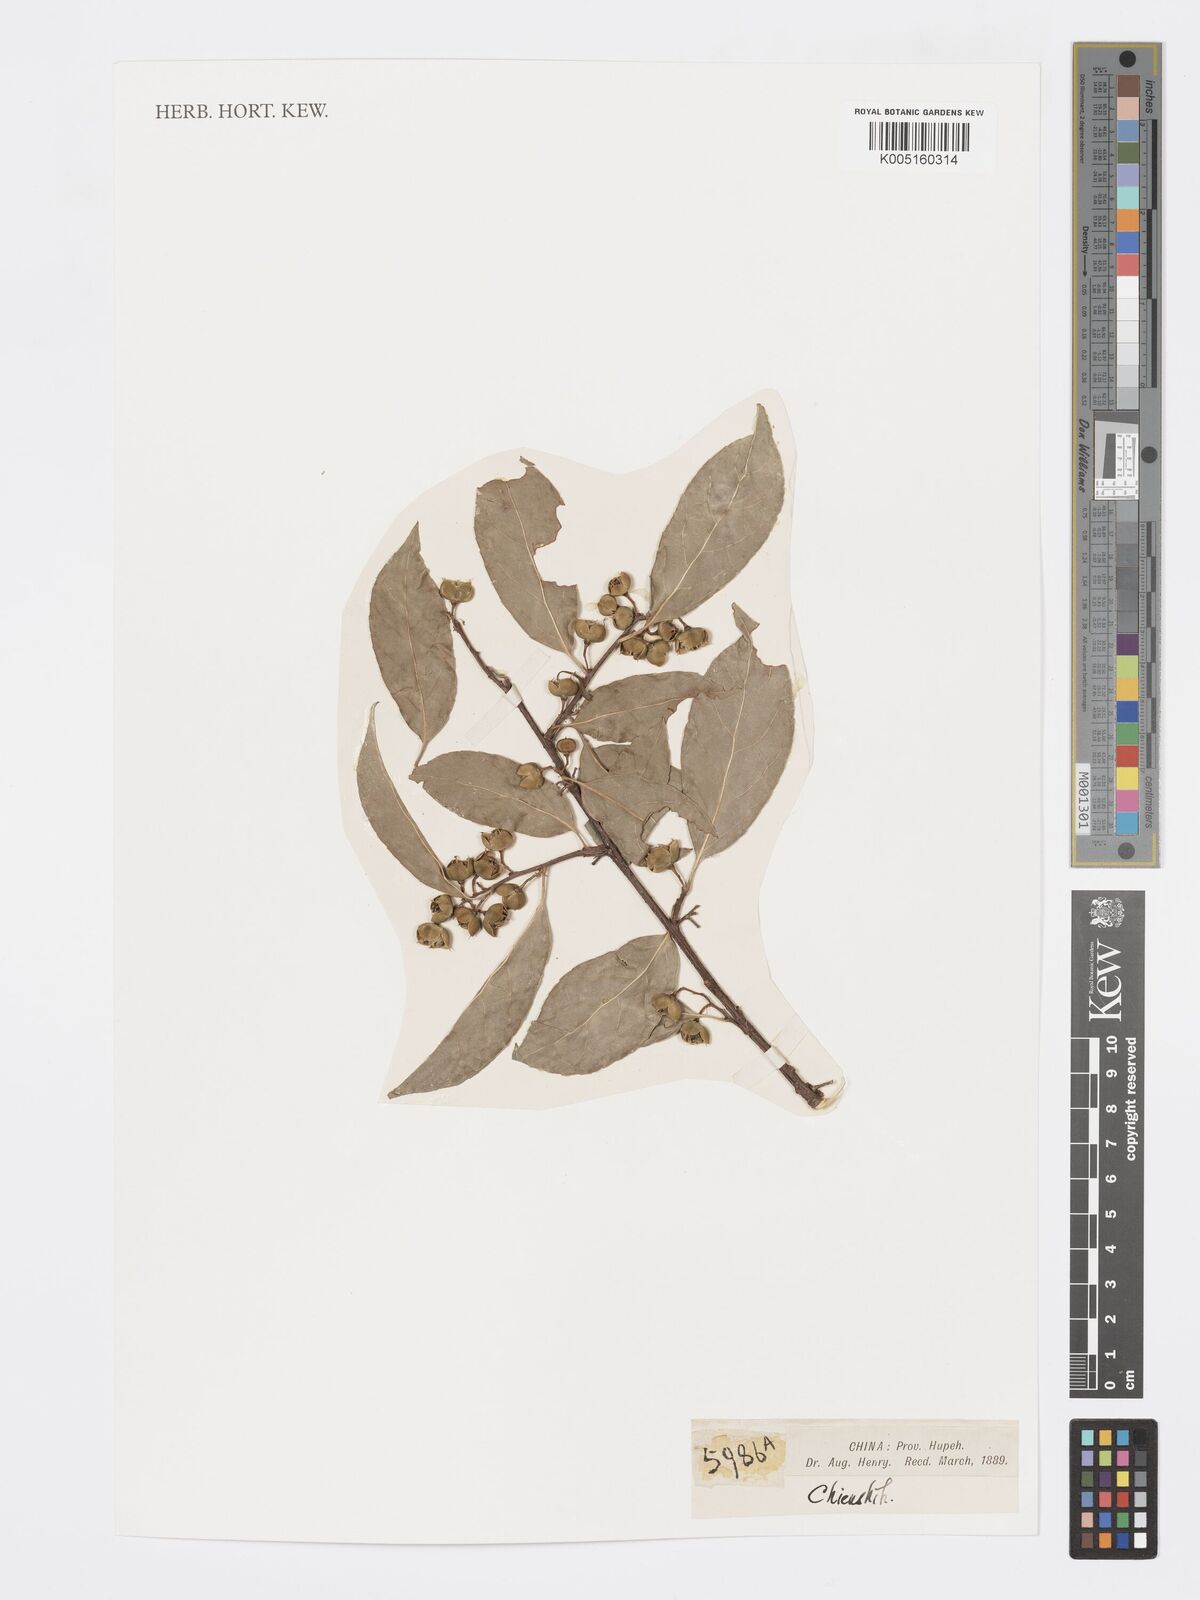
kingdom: Plantae
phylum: Tracheophyta
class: Magnoliopsida
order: Celastrales
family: Celastraceae
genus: Euonymus
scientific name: Euonymus
